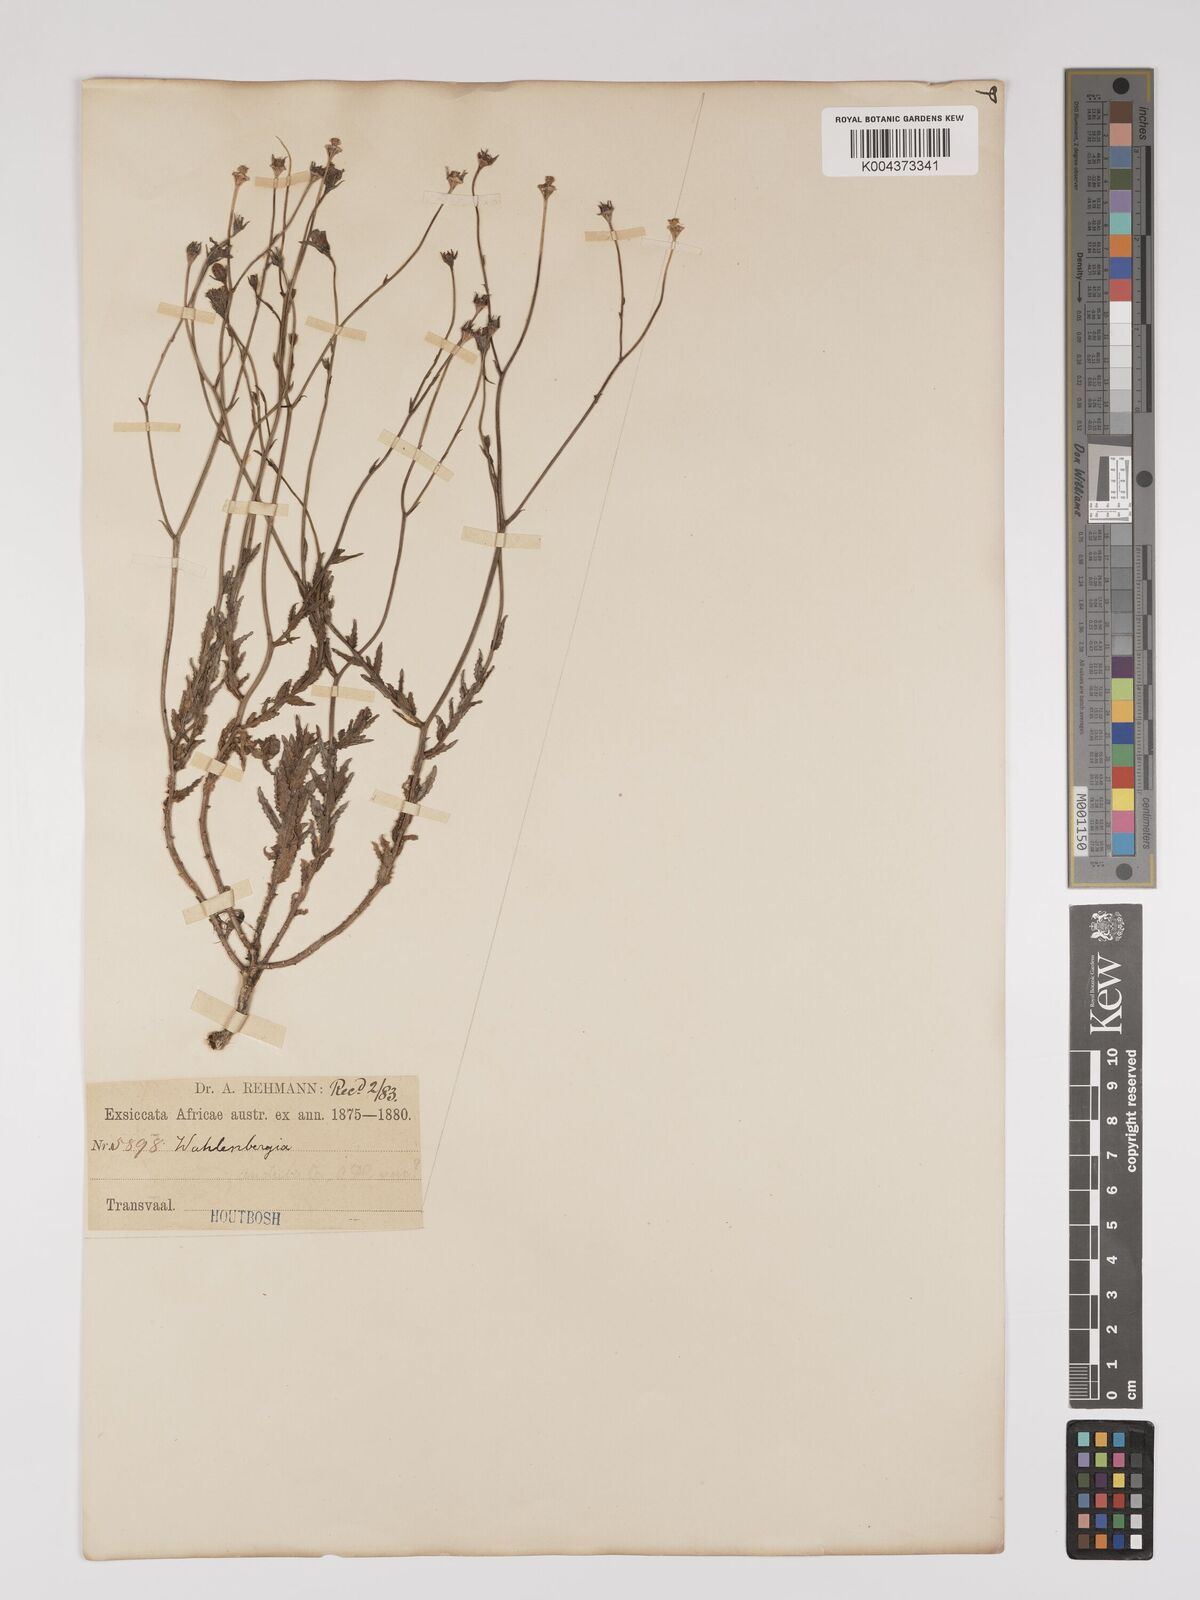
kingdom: Plantae
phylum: Tracheophyta
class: Magnoliopsida
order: Asterales
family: Campanulaceae
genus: Wahlenbergia
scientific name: Wahlenbergia undulata
